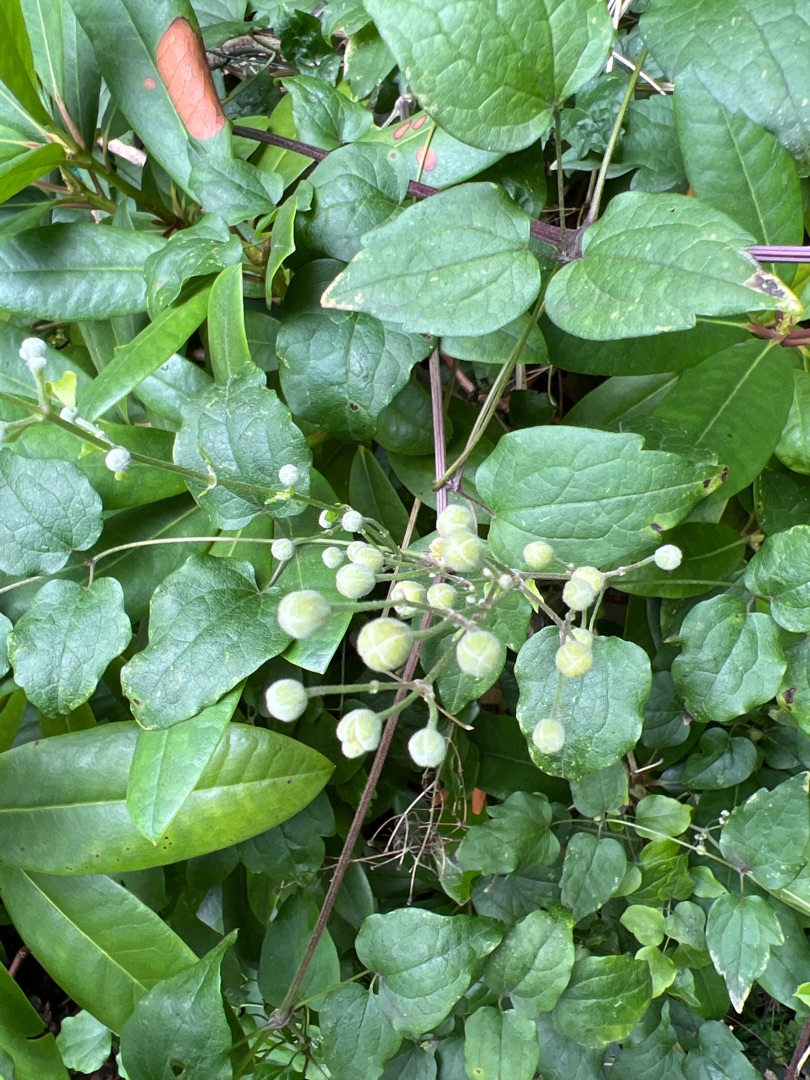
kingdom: Plantae
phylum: Tracheophyta
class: Magnoliopsida
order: Ranunculales
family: Ranunculaceae
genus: Clematis
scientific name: Clematis vitalba
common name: Skovranke
